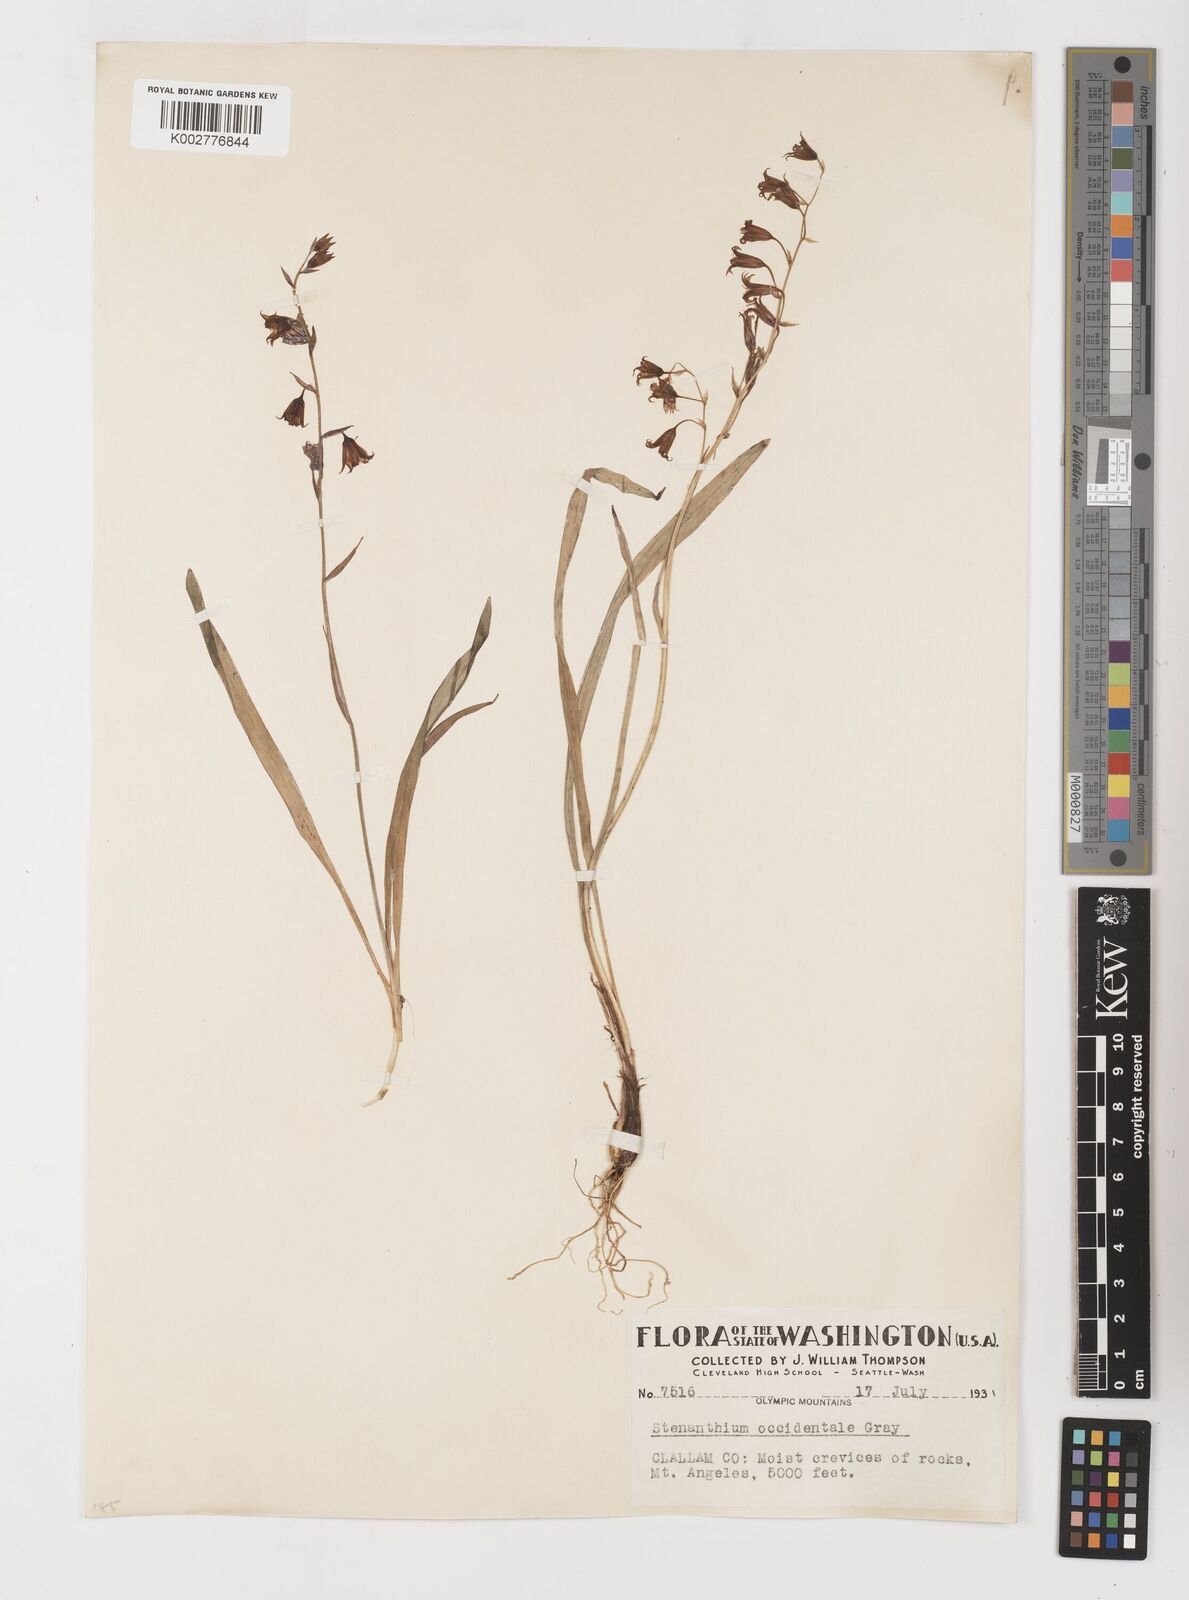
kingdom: Plantae
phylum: Tracheophyta
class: Liliopsida
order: Liliales
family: Melanthiaceae
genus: Anticlea
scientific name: Anticlea occidentalis
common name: Bronze-bells
